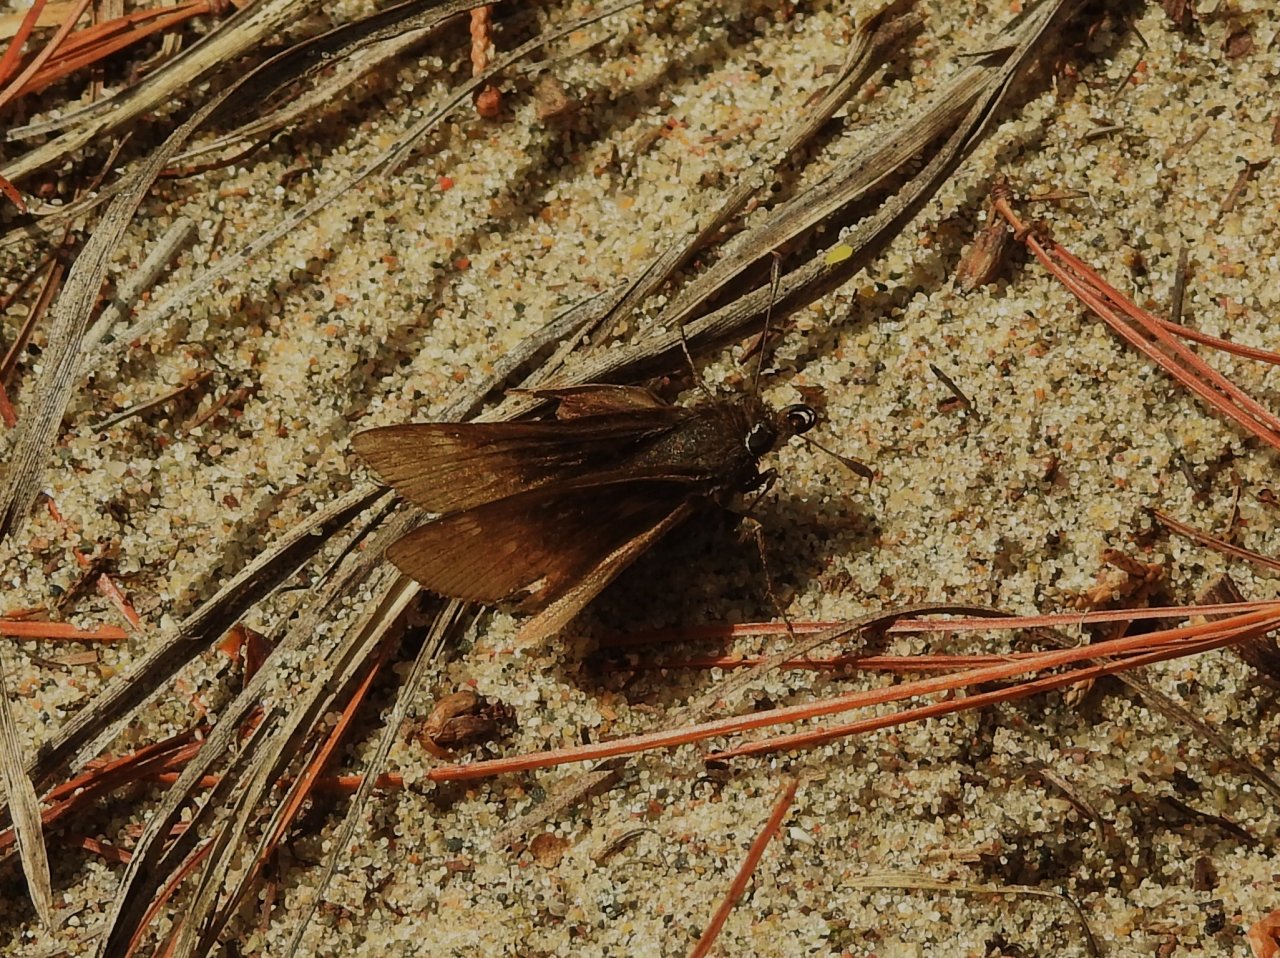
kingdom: Animalia
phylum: Arthropoda
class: Insecta
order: Lepidoptera
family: Hesperiidae
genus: Atrytonopsis
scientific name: Atrytonopsis hianna
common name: Dusted Skipper
